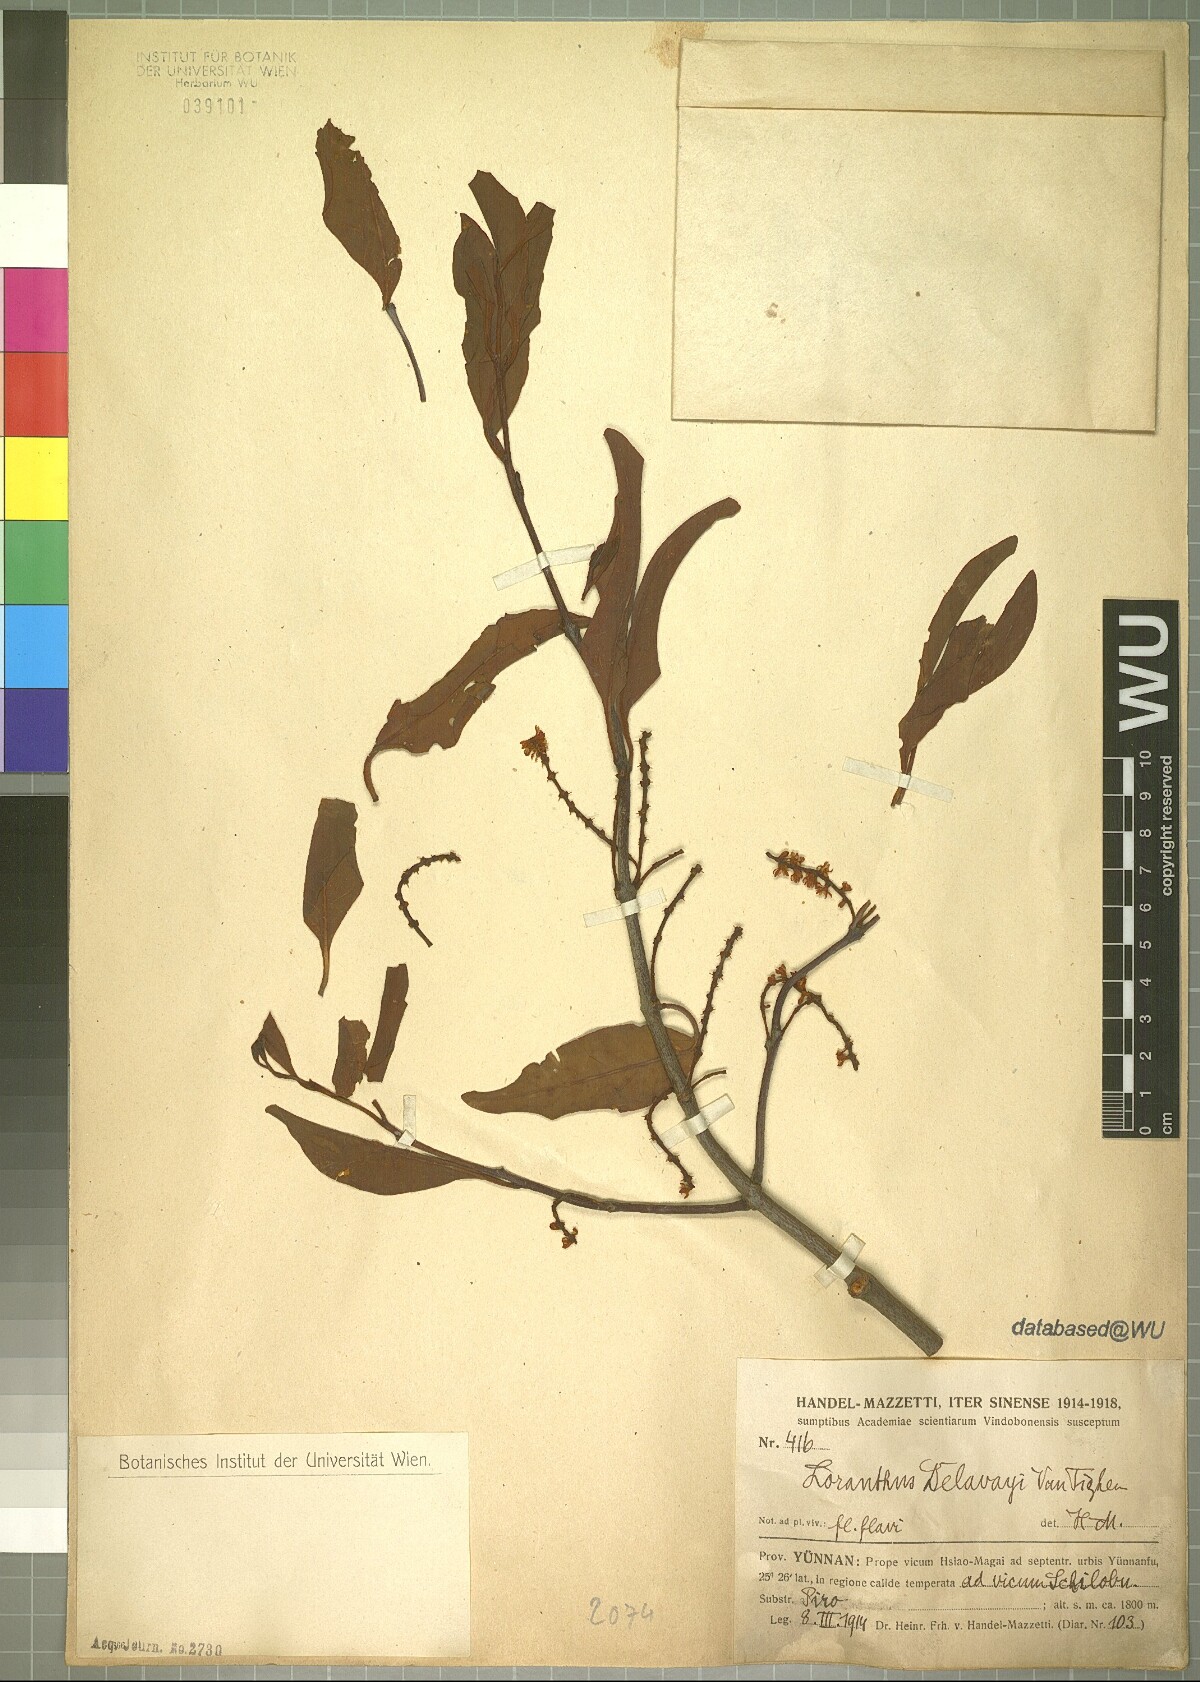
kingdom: Plantae
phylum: Tracheophyta
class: Magnoliopsida
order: Santalales
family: Loranthaceae
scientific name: Loranthaceae
